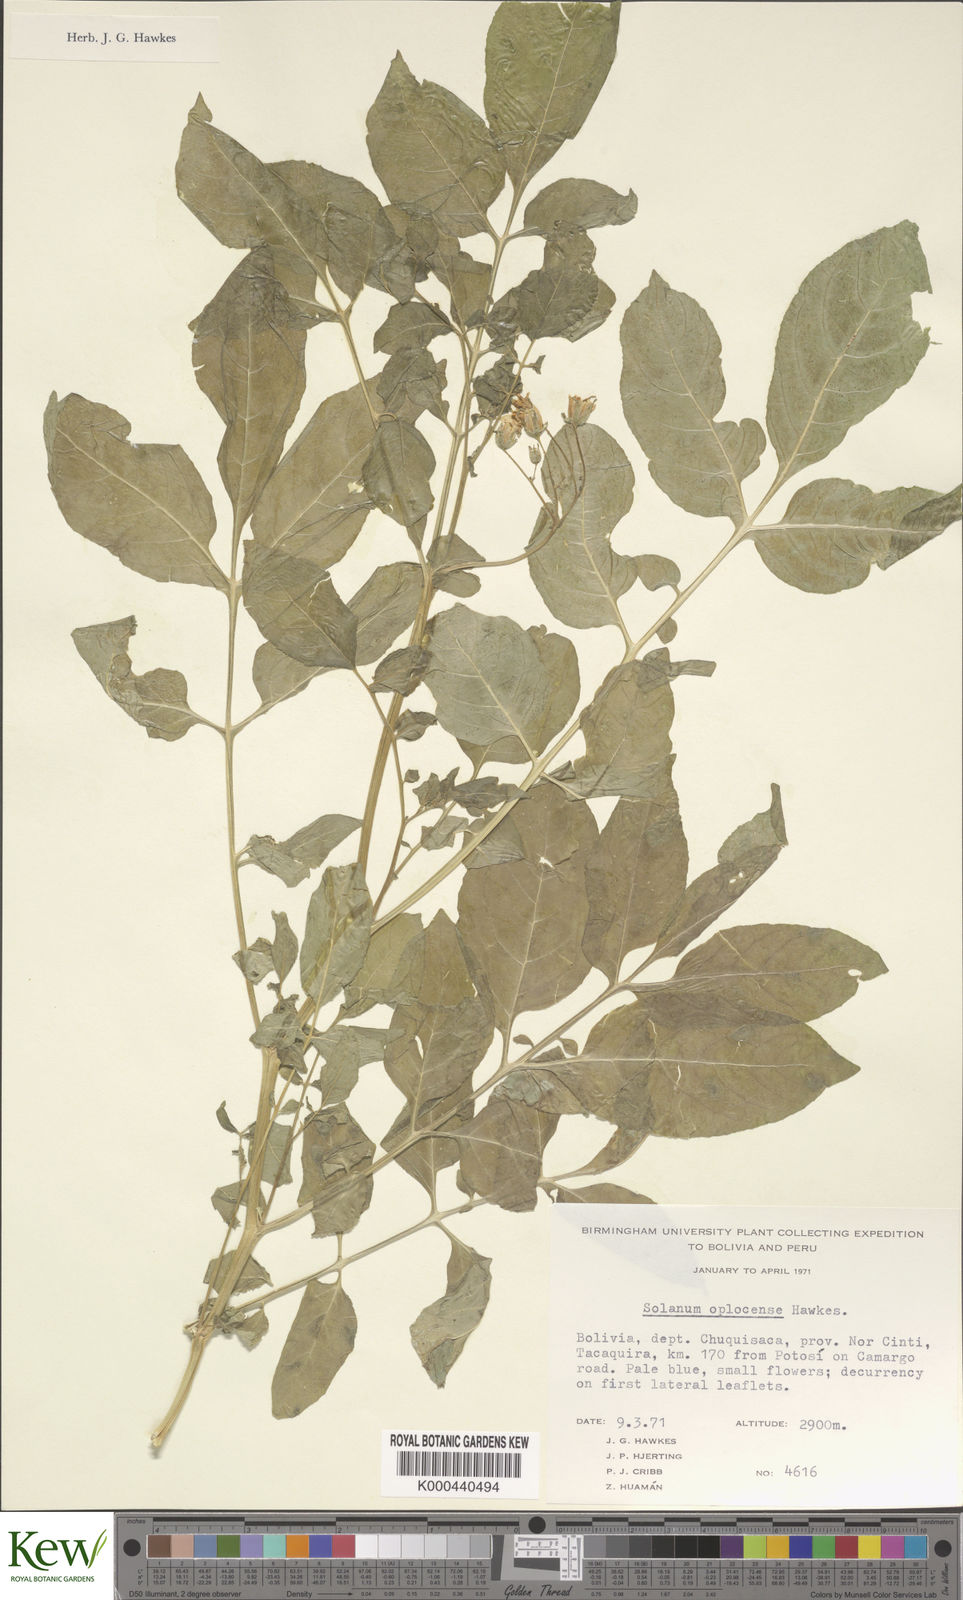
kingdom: Plantae
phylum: Tracheophyta
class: Magnoliopsida
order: Solanales
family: Solanaceae
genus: Solanum
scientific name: Solanum brevicaule
